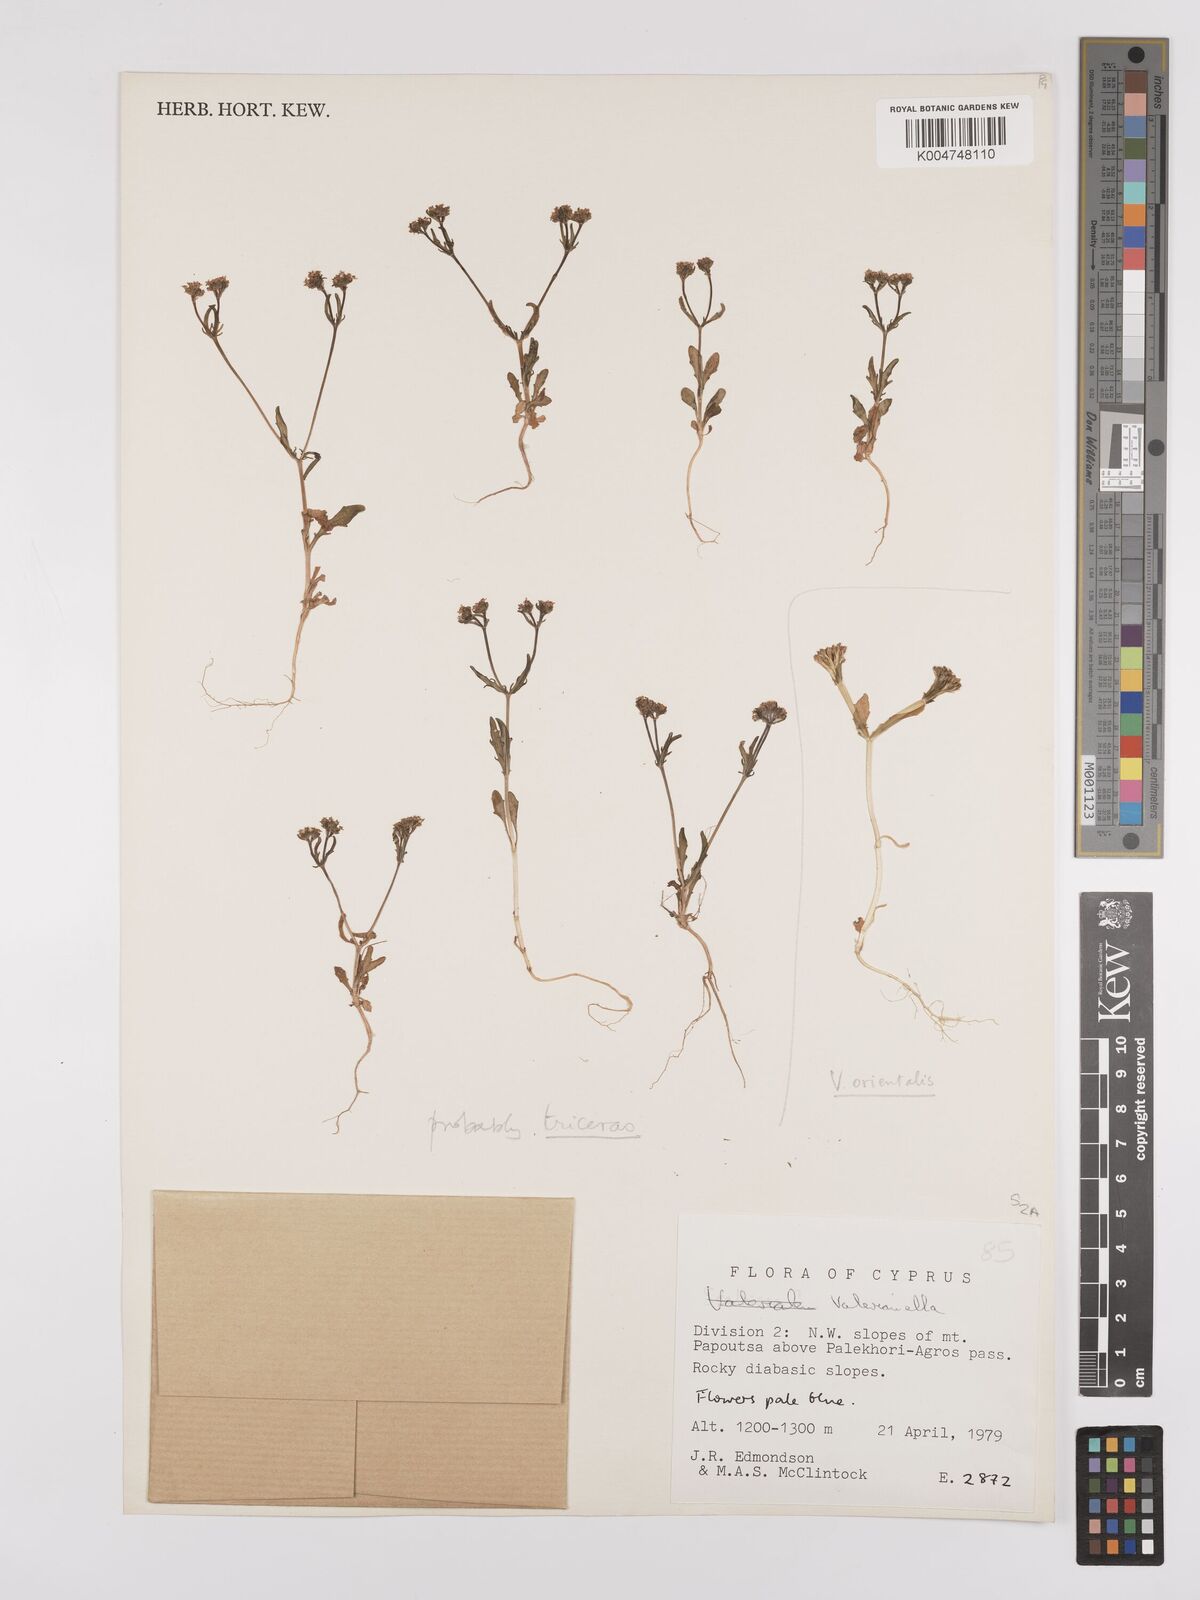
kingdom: Plantae
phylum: Tracheophyta
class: Magnoliopsida
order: Dipsacales
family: Caprifoliaceae
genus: Valeriana
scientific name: Valeriana
